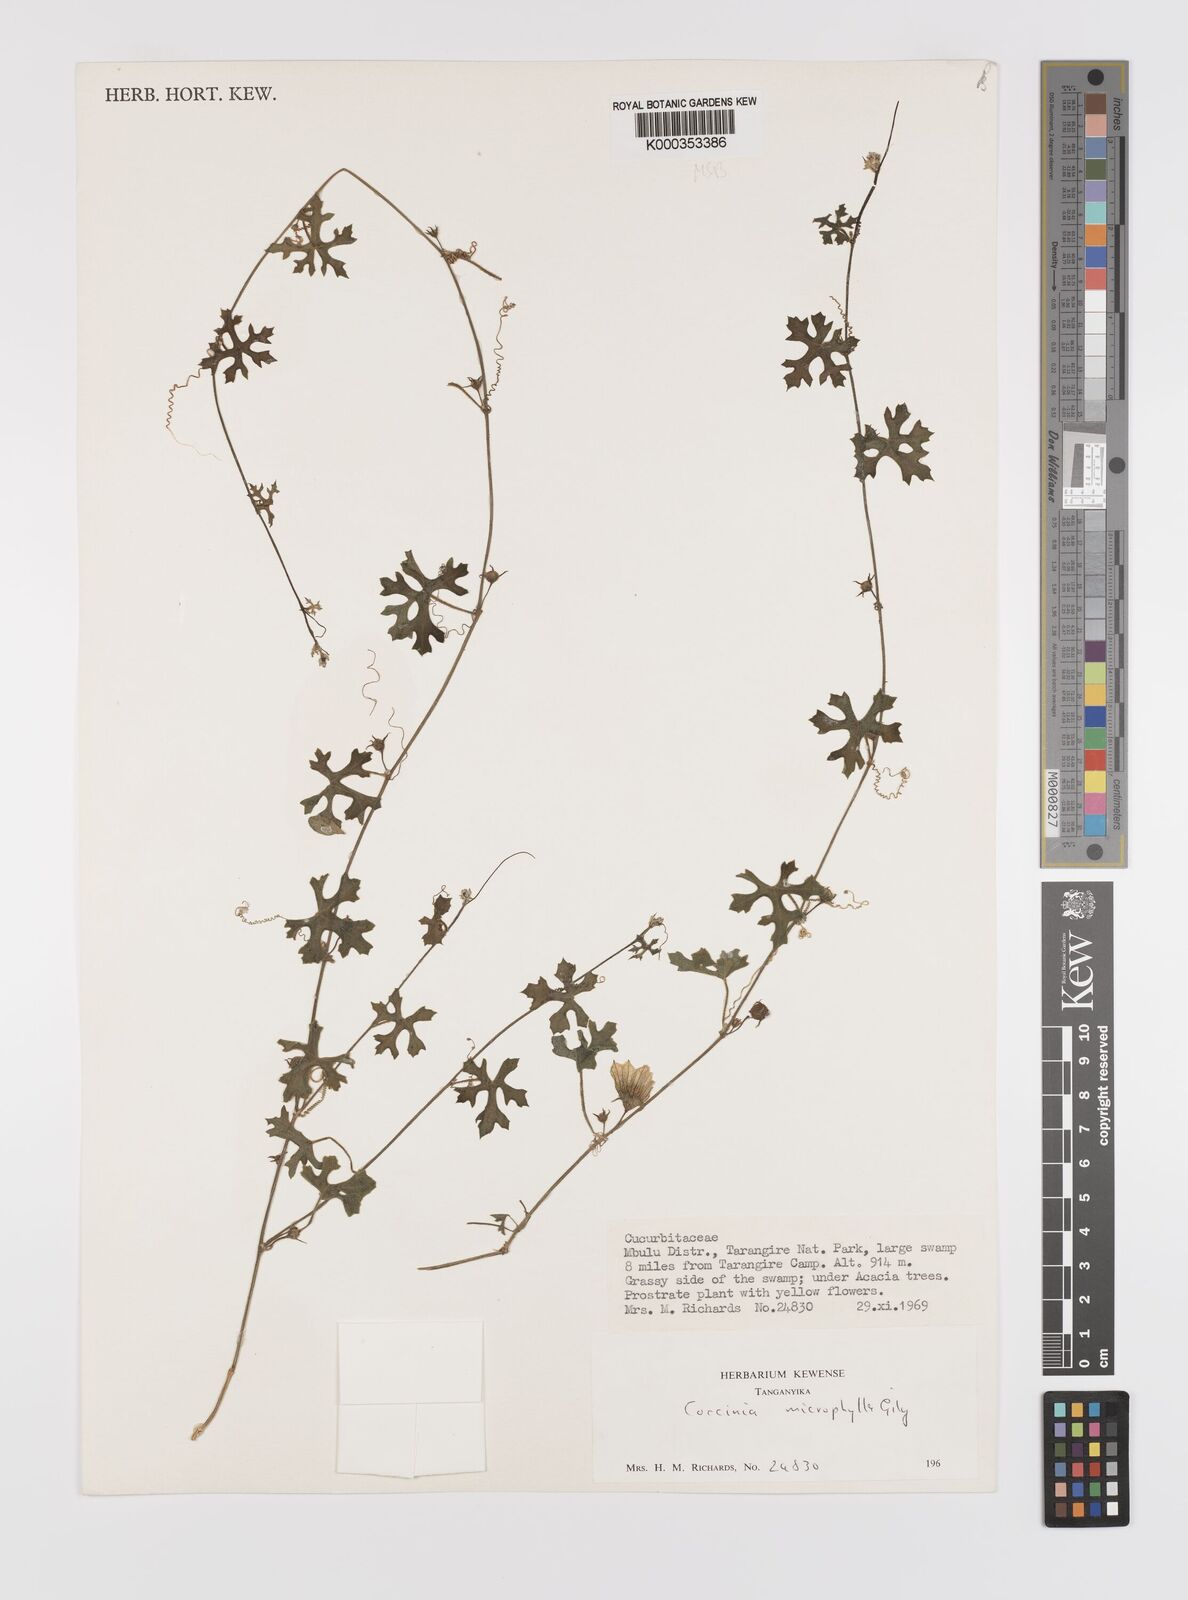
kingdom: Plantae
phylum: Tracheophyta
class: Magnoliopsida
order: Cucurbitales
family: Cucurbitaceae
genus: Coccinia
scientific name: Coccinia microphylla
